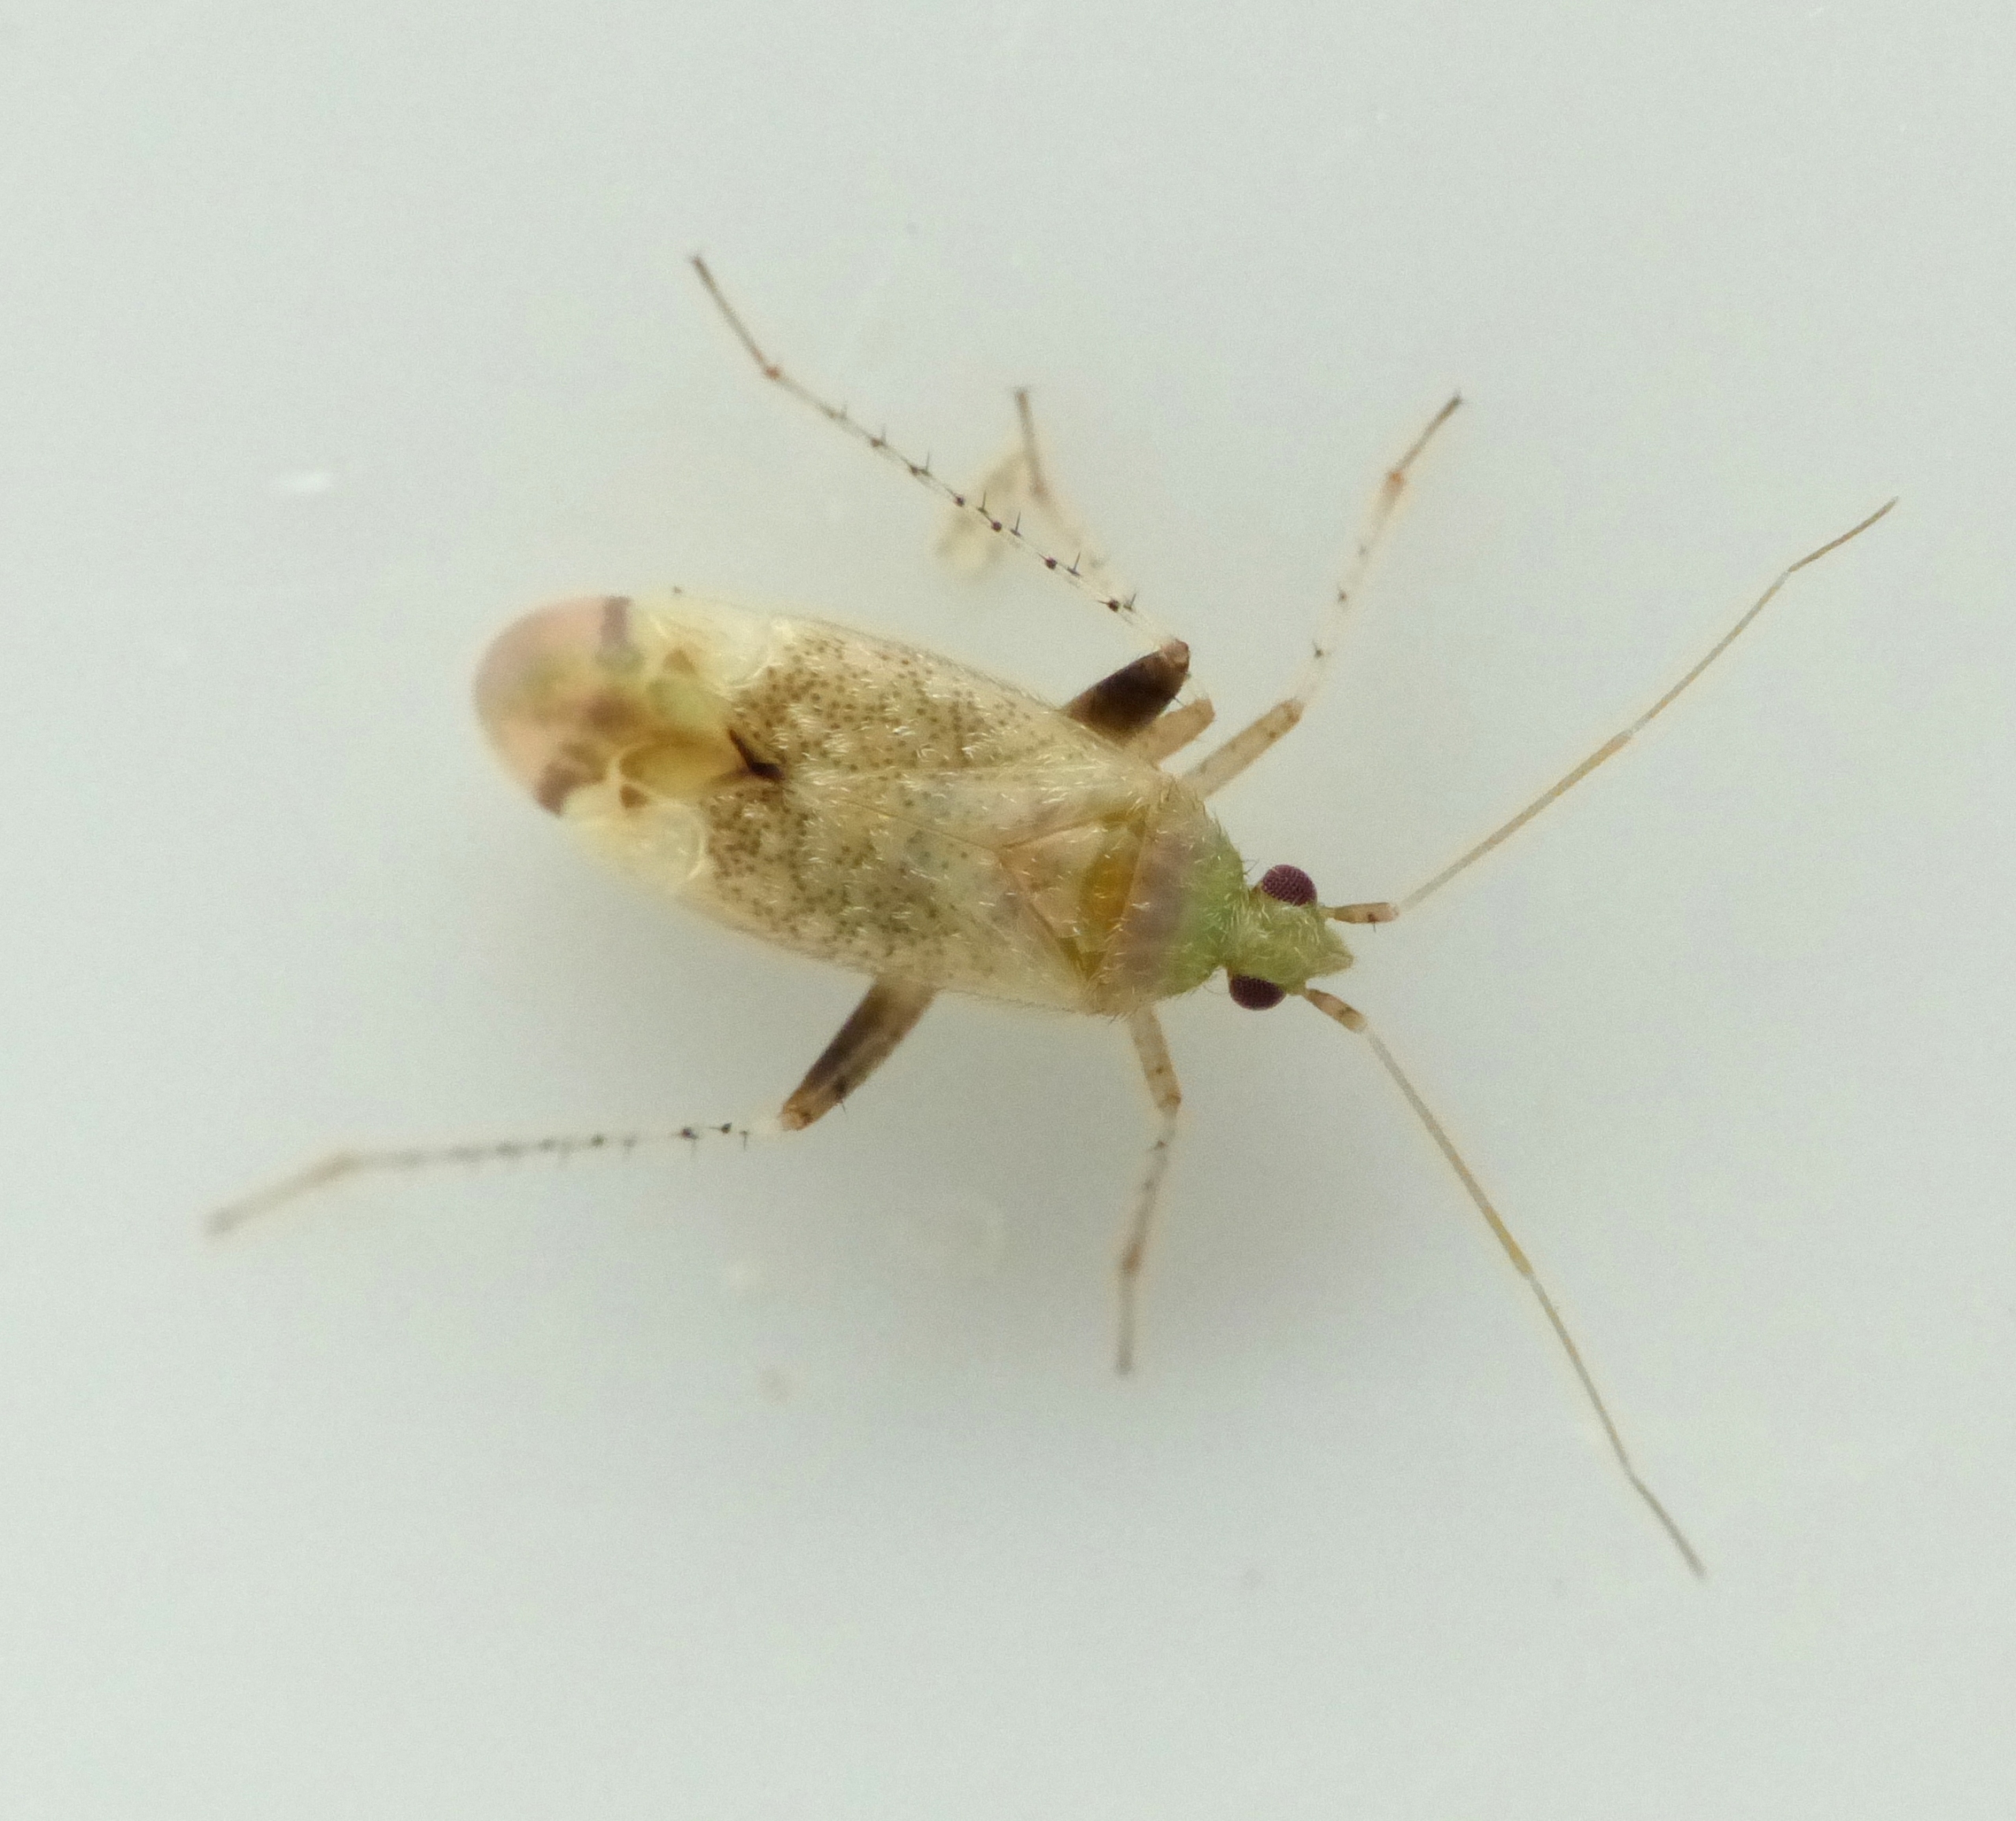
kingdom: Animalia
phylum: Arthropoda
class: Insecta
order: Hemiptera
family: Miridae
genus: Compsidolon
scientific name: Compsidolon salicellum
